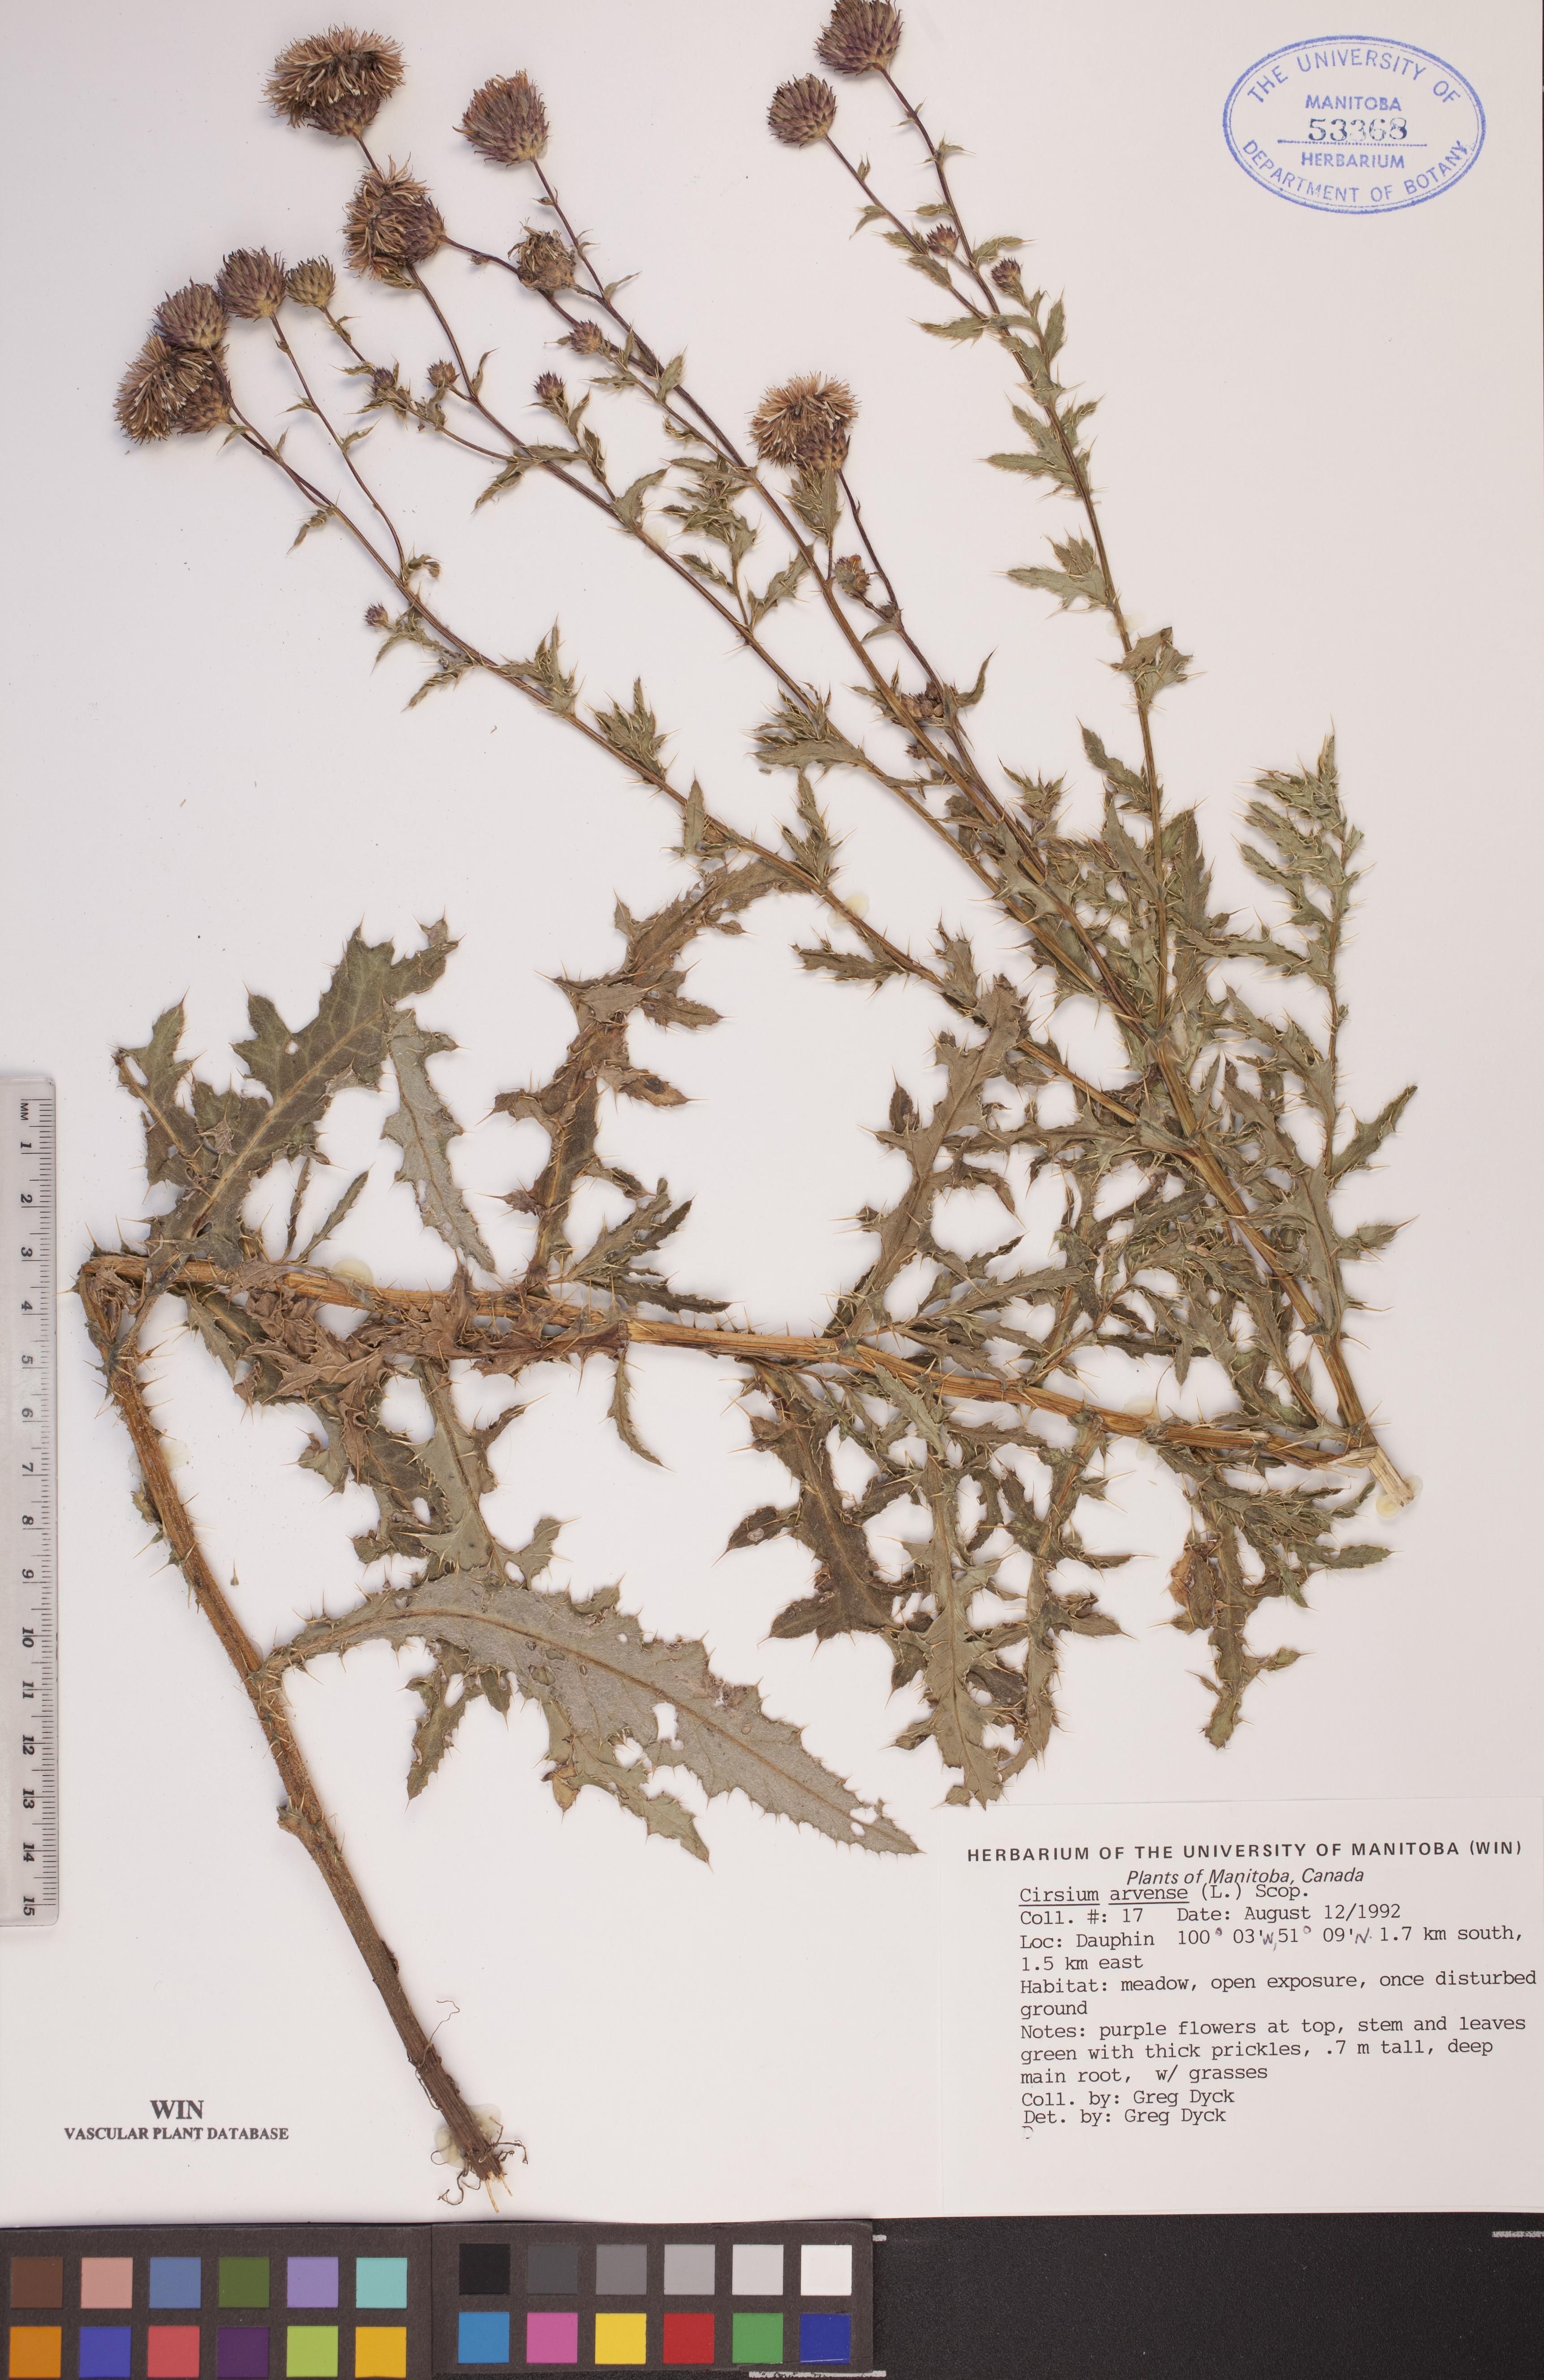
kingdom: Plantae
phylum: Tracheophyta
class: Magnoliopsida
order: Asterales
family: Asteraceae
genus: Cirsium
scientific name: Cirsium arvense
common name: Creeping thistle
